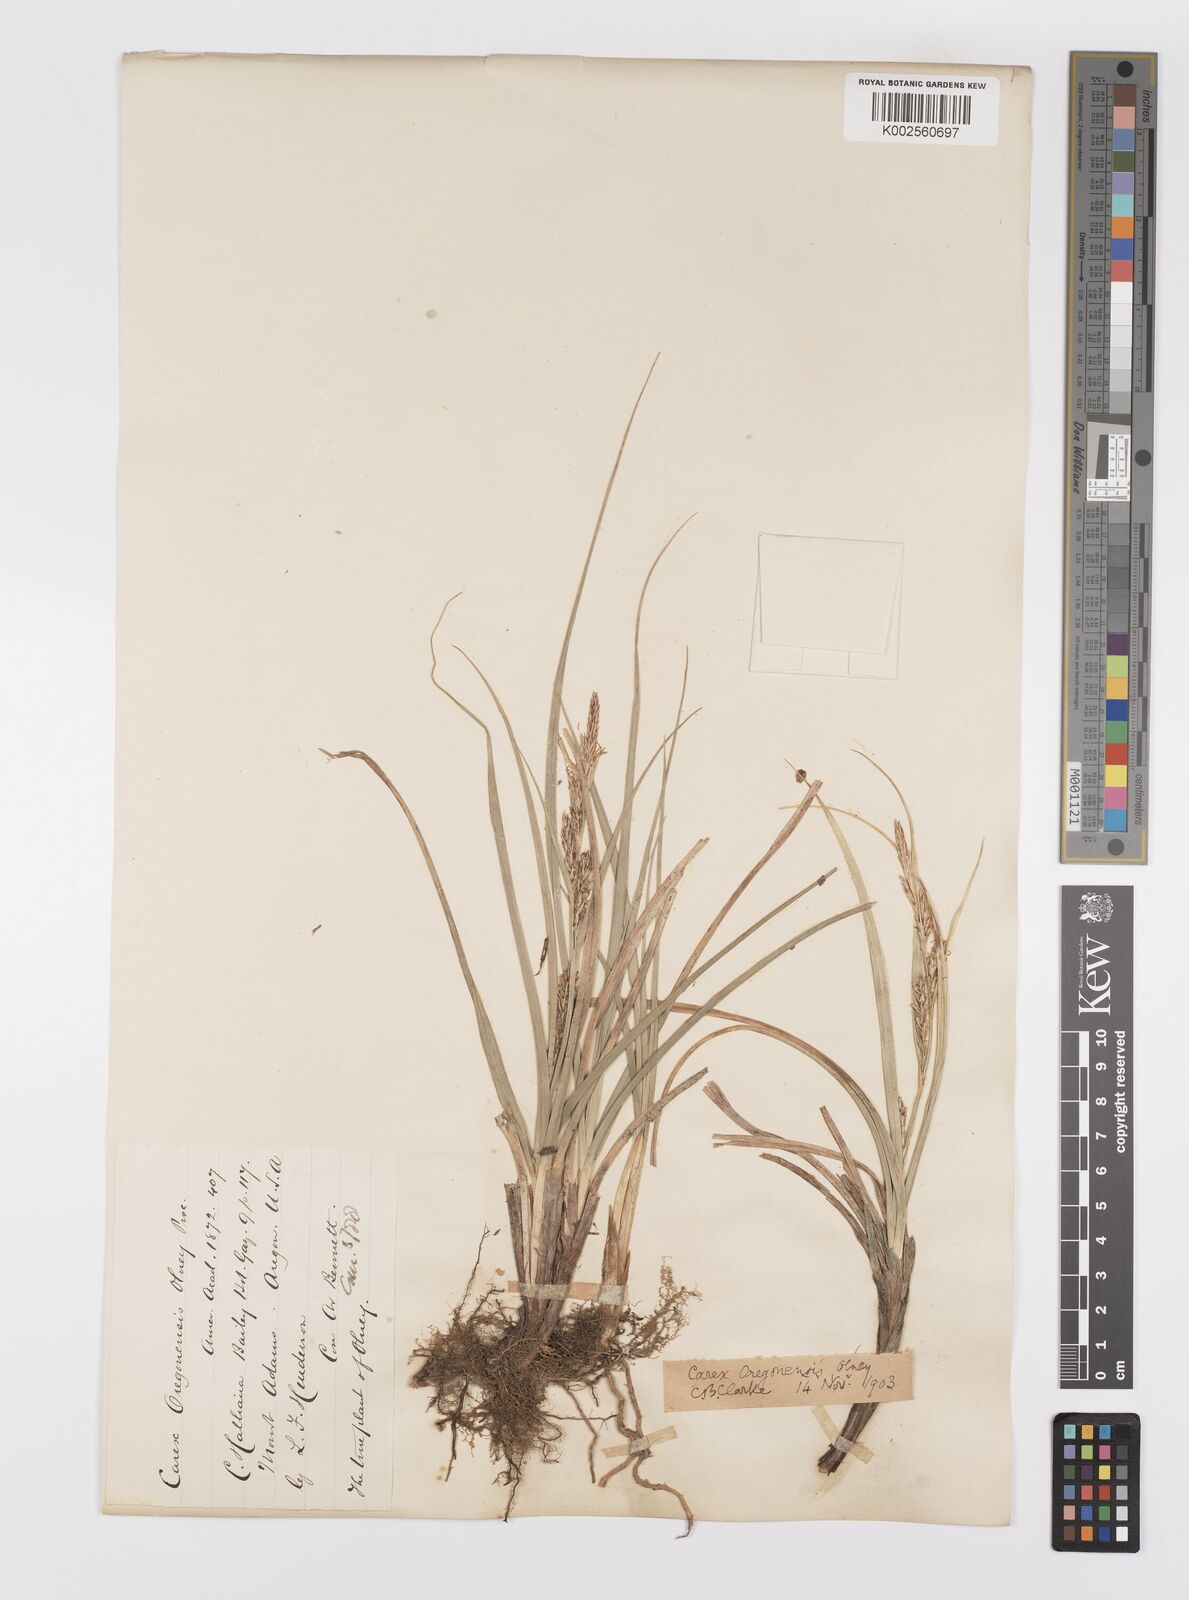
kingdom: Plantae
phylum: Tracheophyta
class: Liliopsida
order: Poales
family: Cyperaceae
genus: Carex
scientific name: Carex halliana
